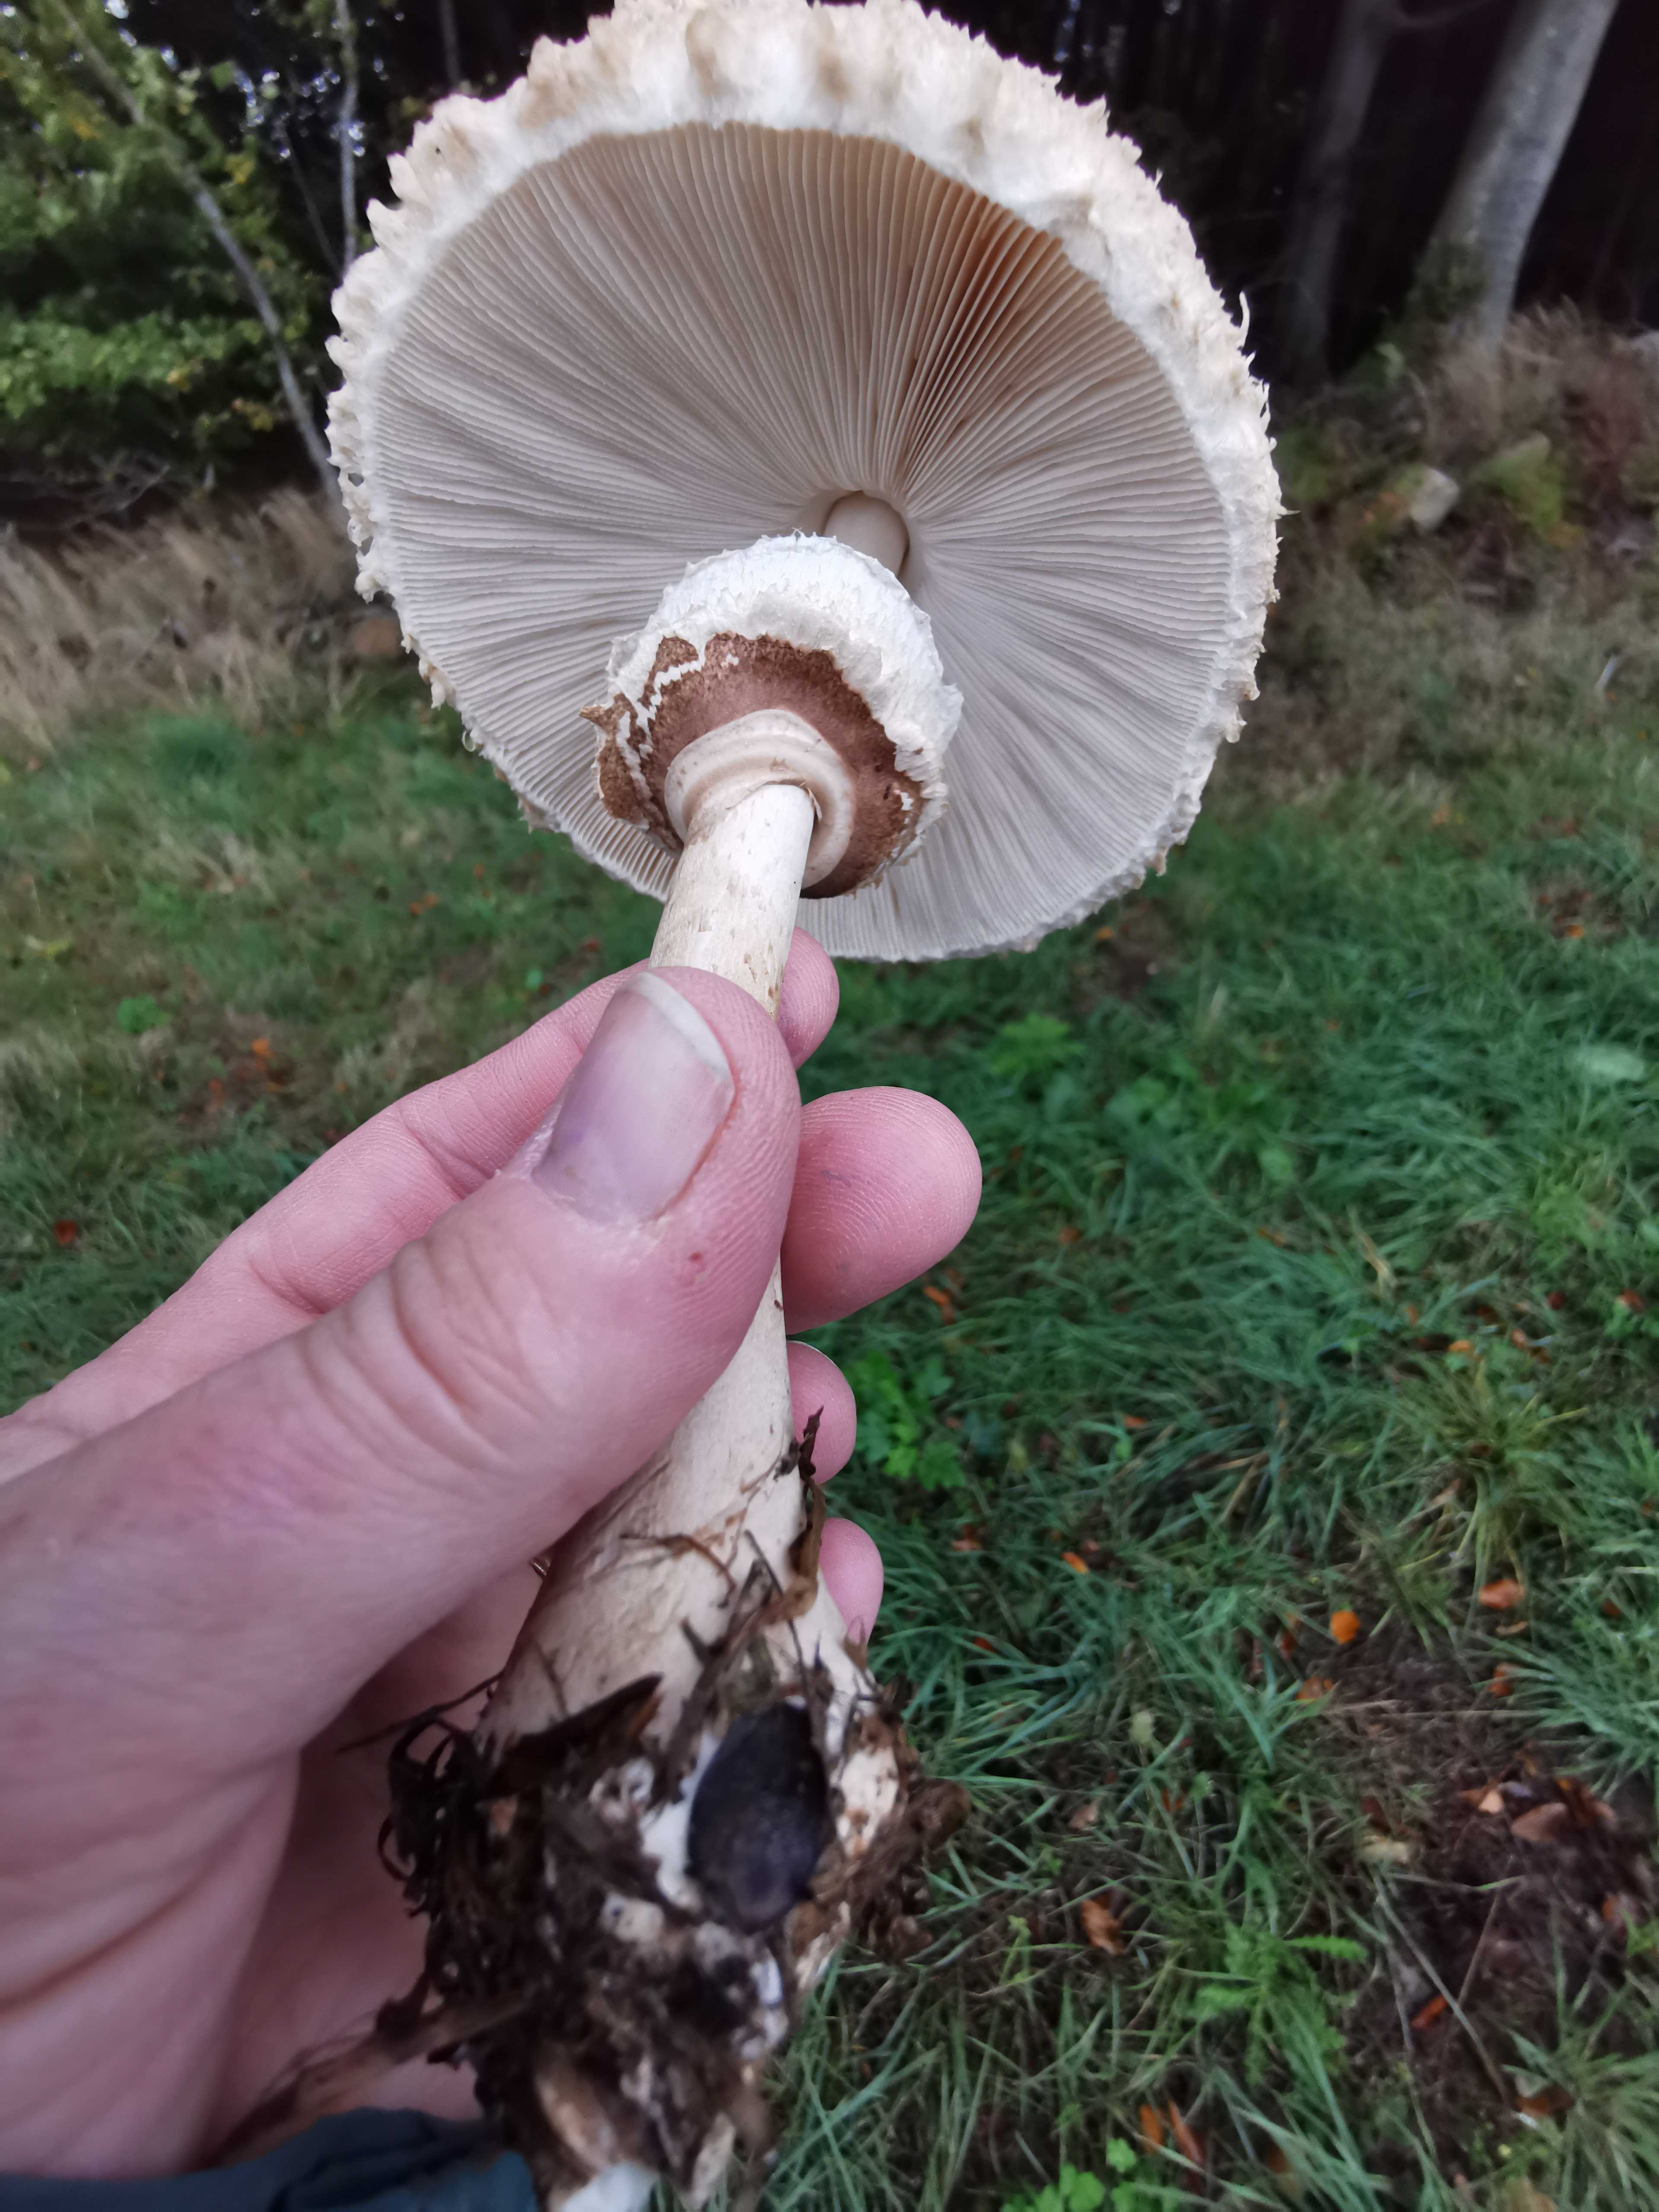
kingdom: Fungi
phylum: Basidiomycota
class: Agaricomycetes
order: Agaricales
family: Agaricaceae
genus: Macrolepiota
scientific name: Macrolepiota
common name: kæmpeparasolhat
